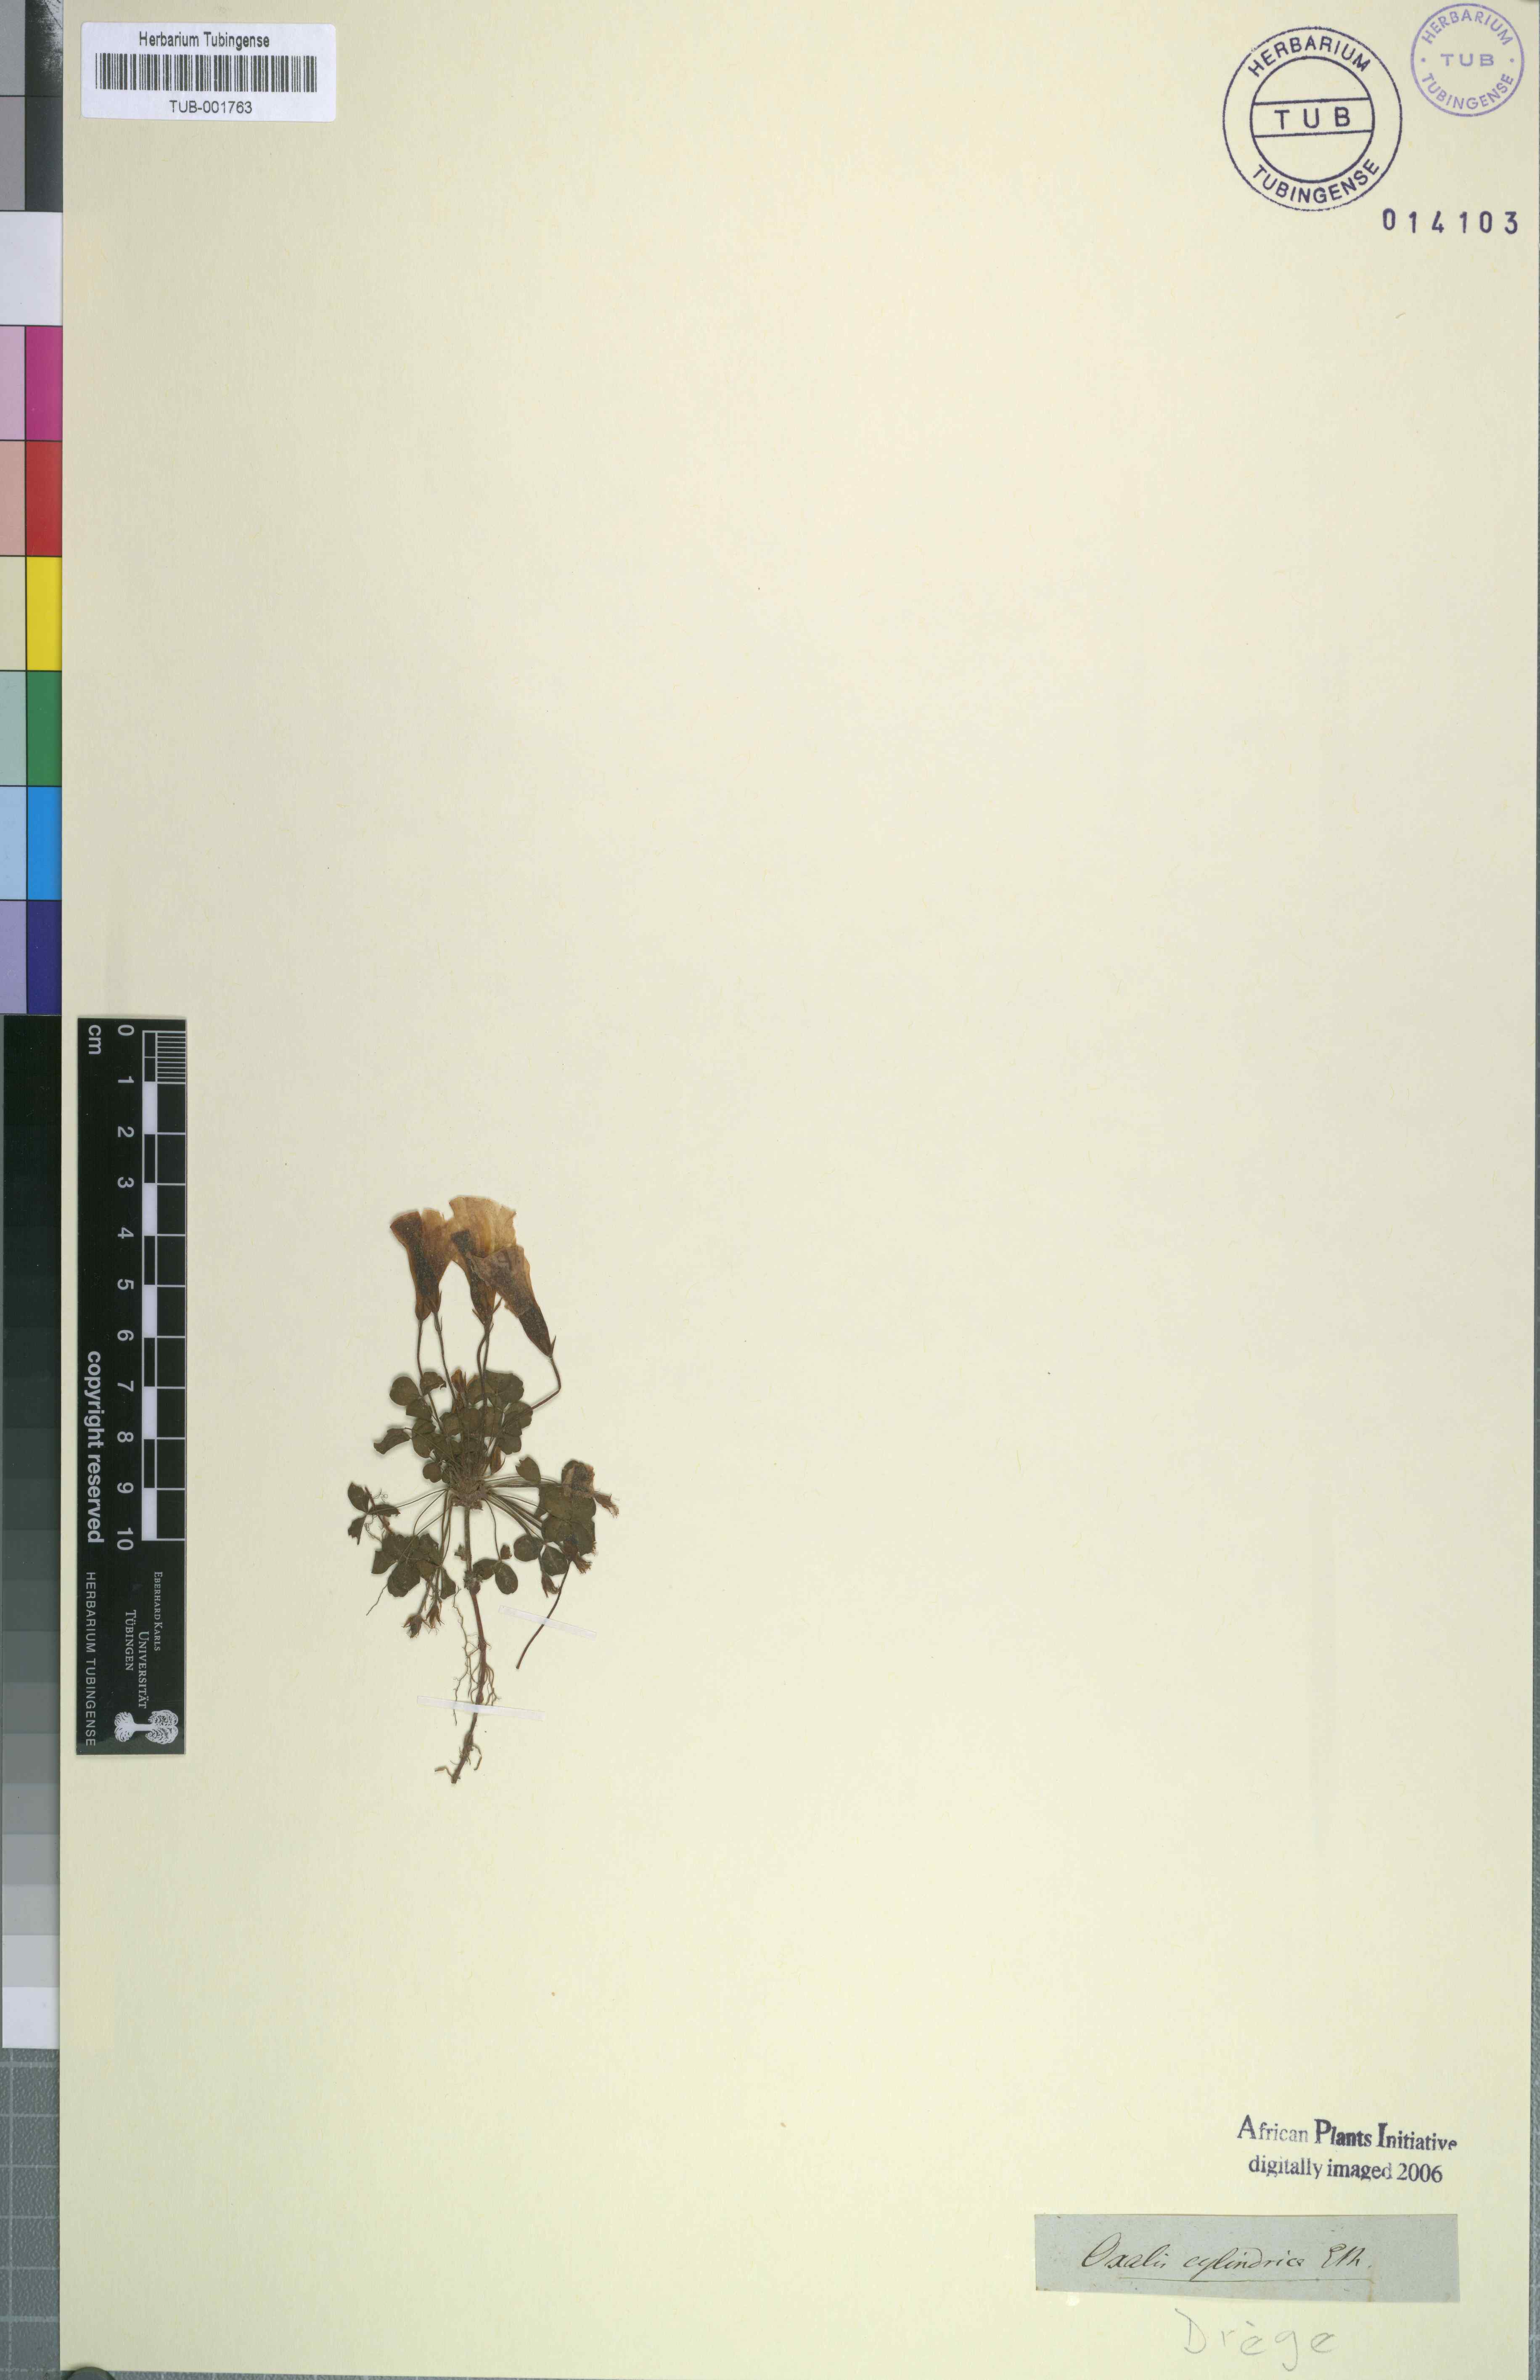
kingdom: Plantae
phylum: Tracheophyta
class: Magnoliopsida
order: Oxalidales
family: Oxalidaceae
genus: Oxalis
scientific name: Oxalis tenella
